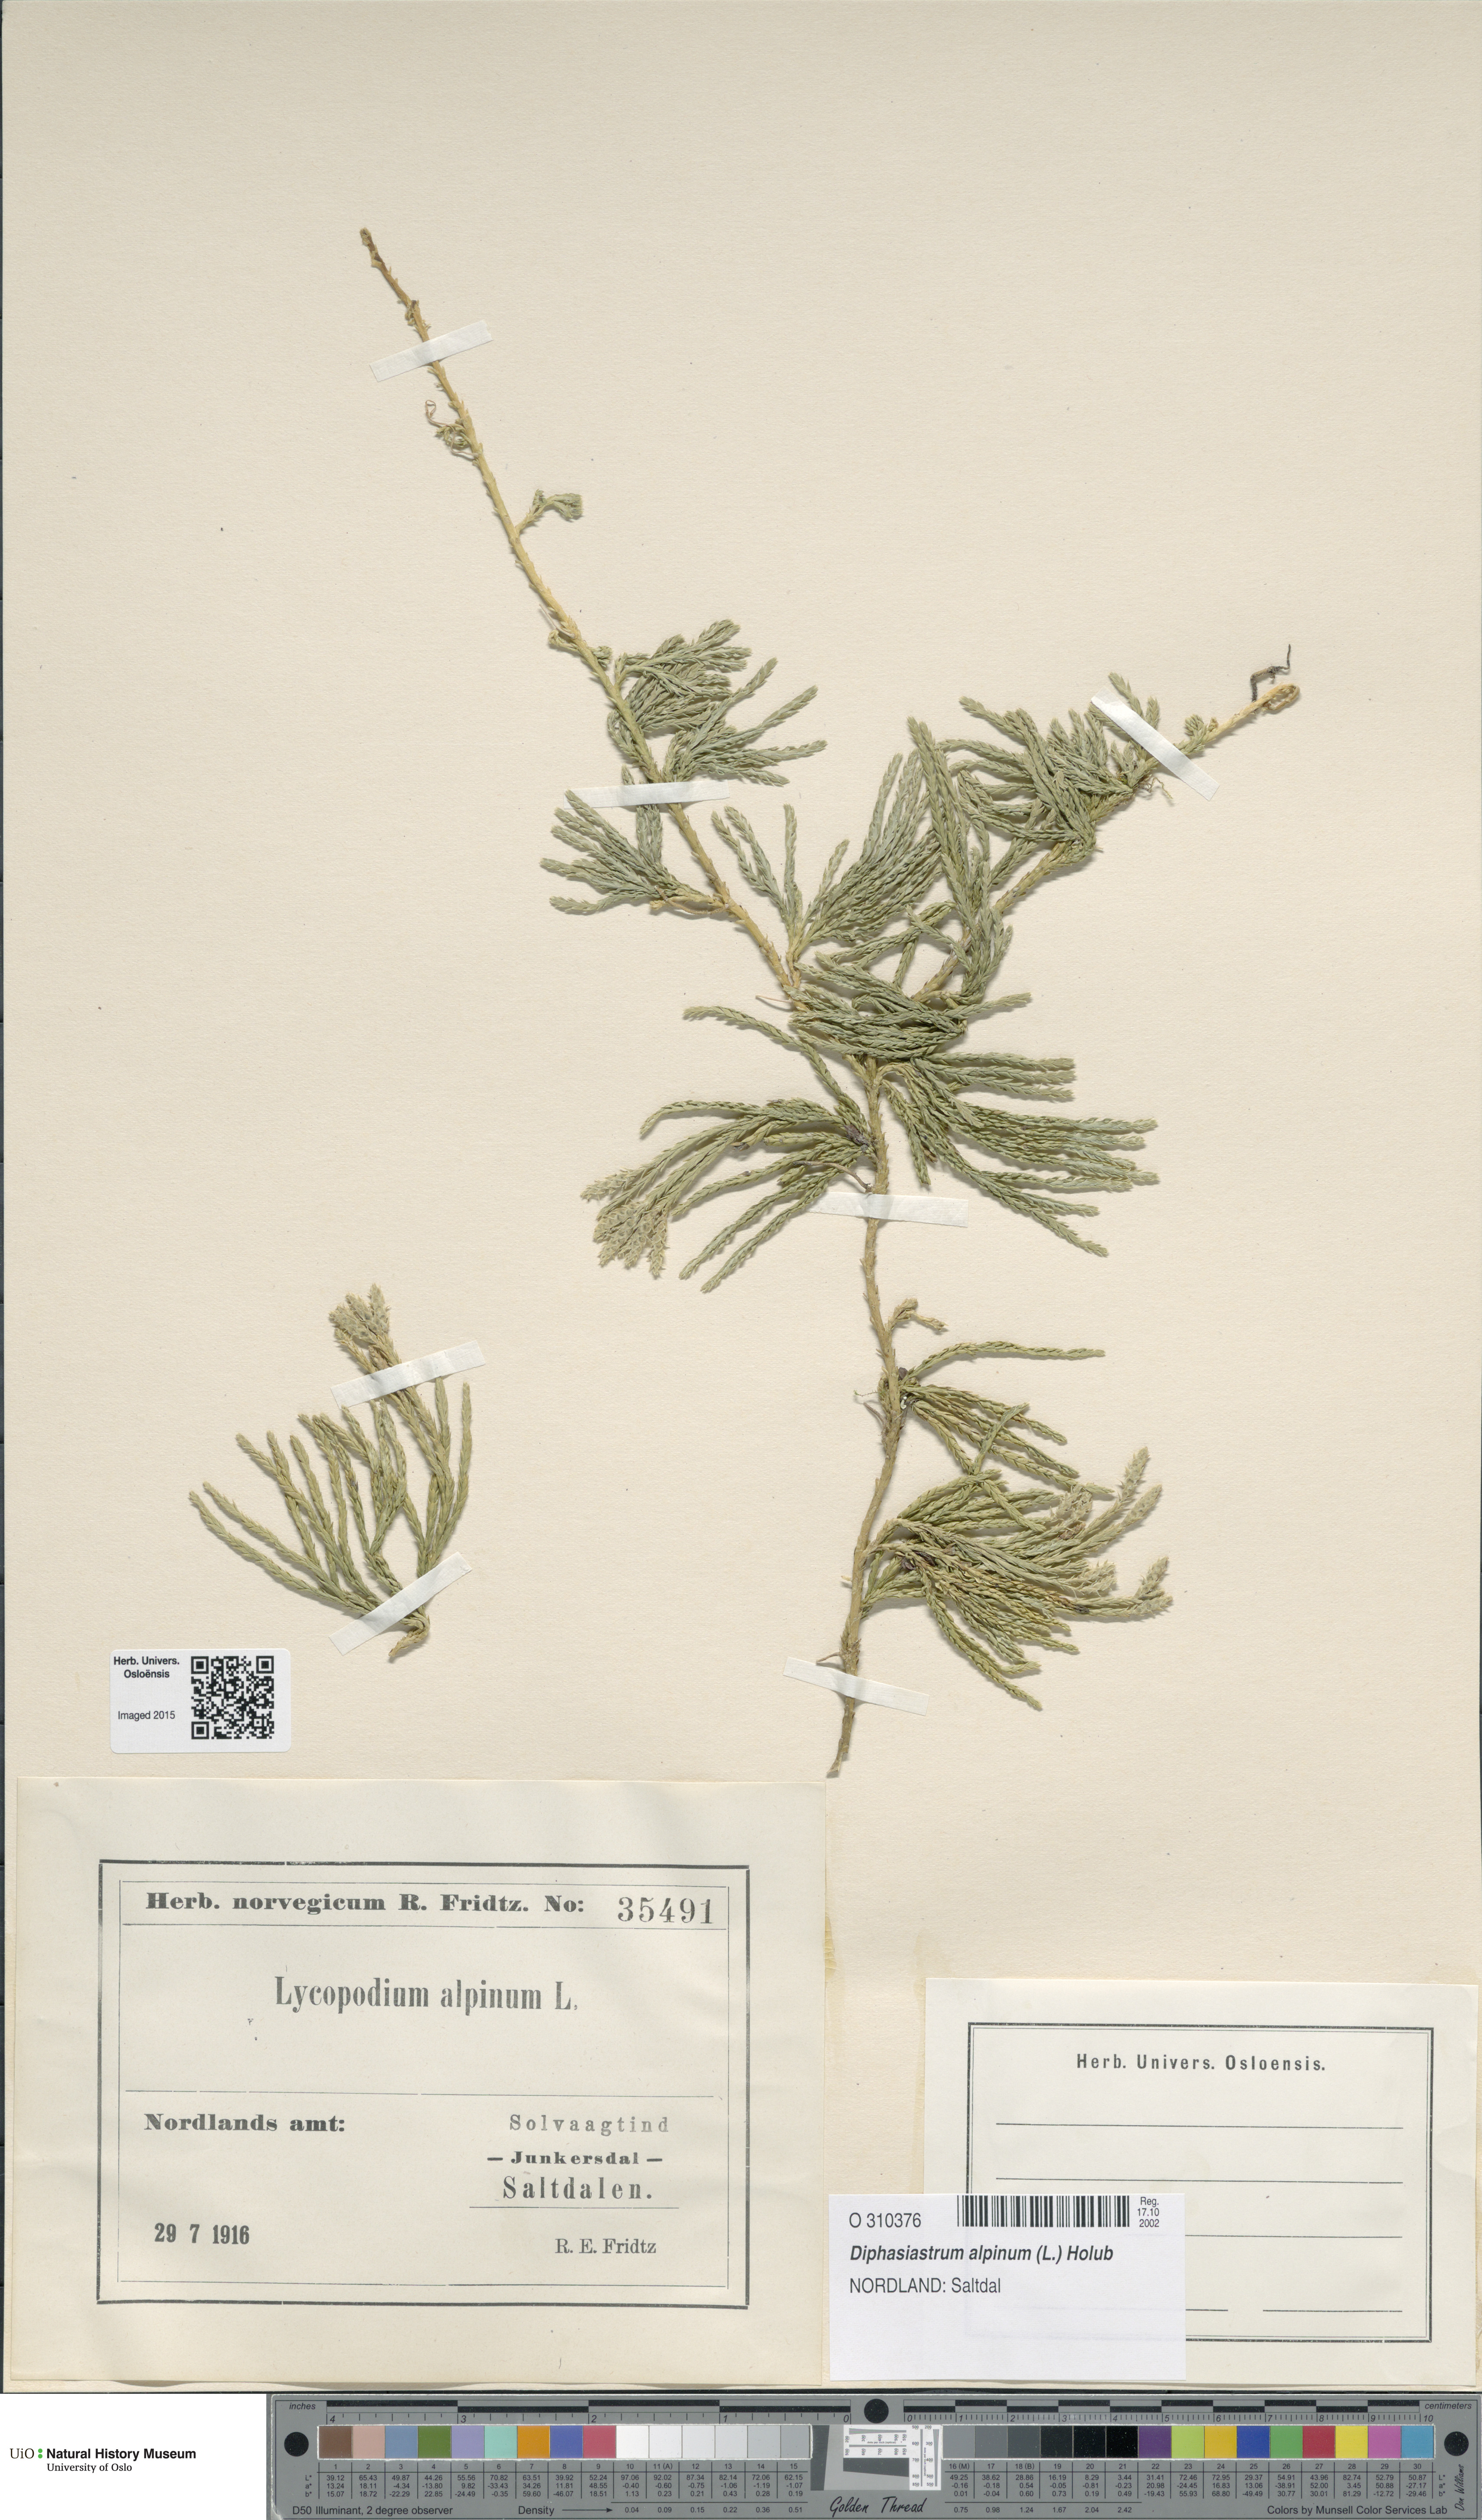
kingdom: Plantae
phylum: Tracheophyta
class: Lycopodiopsida
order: Lycopodiales
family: Lycopodiaceae
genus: Diphasiastrum
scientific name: Diphasiastrum alpinum
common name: Alpine clubmoss
